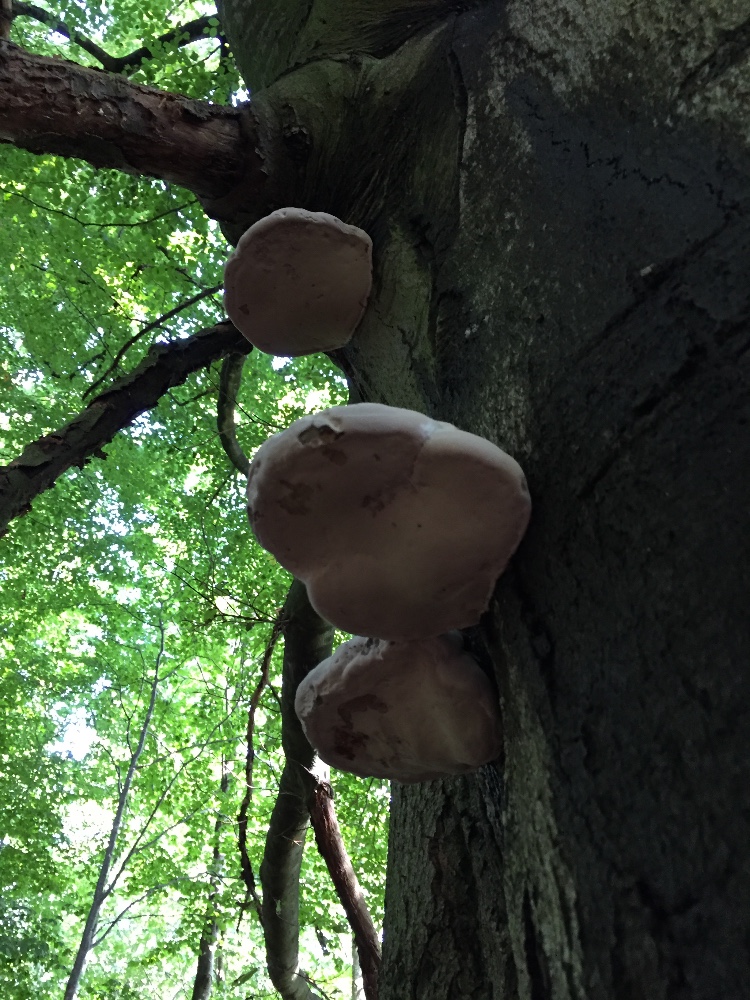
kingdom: Fungi
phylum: Basidiomycota
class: Agaricomycetes
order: Polyporales
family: Polyporaceae
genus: Fomes
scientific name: Fomes fomentarius
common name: tøndersvamp
